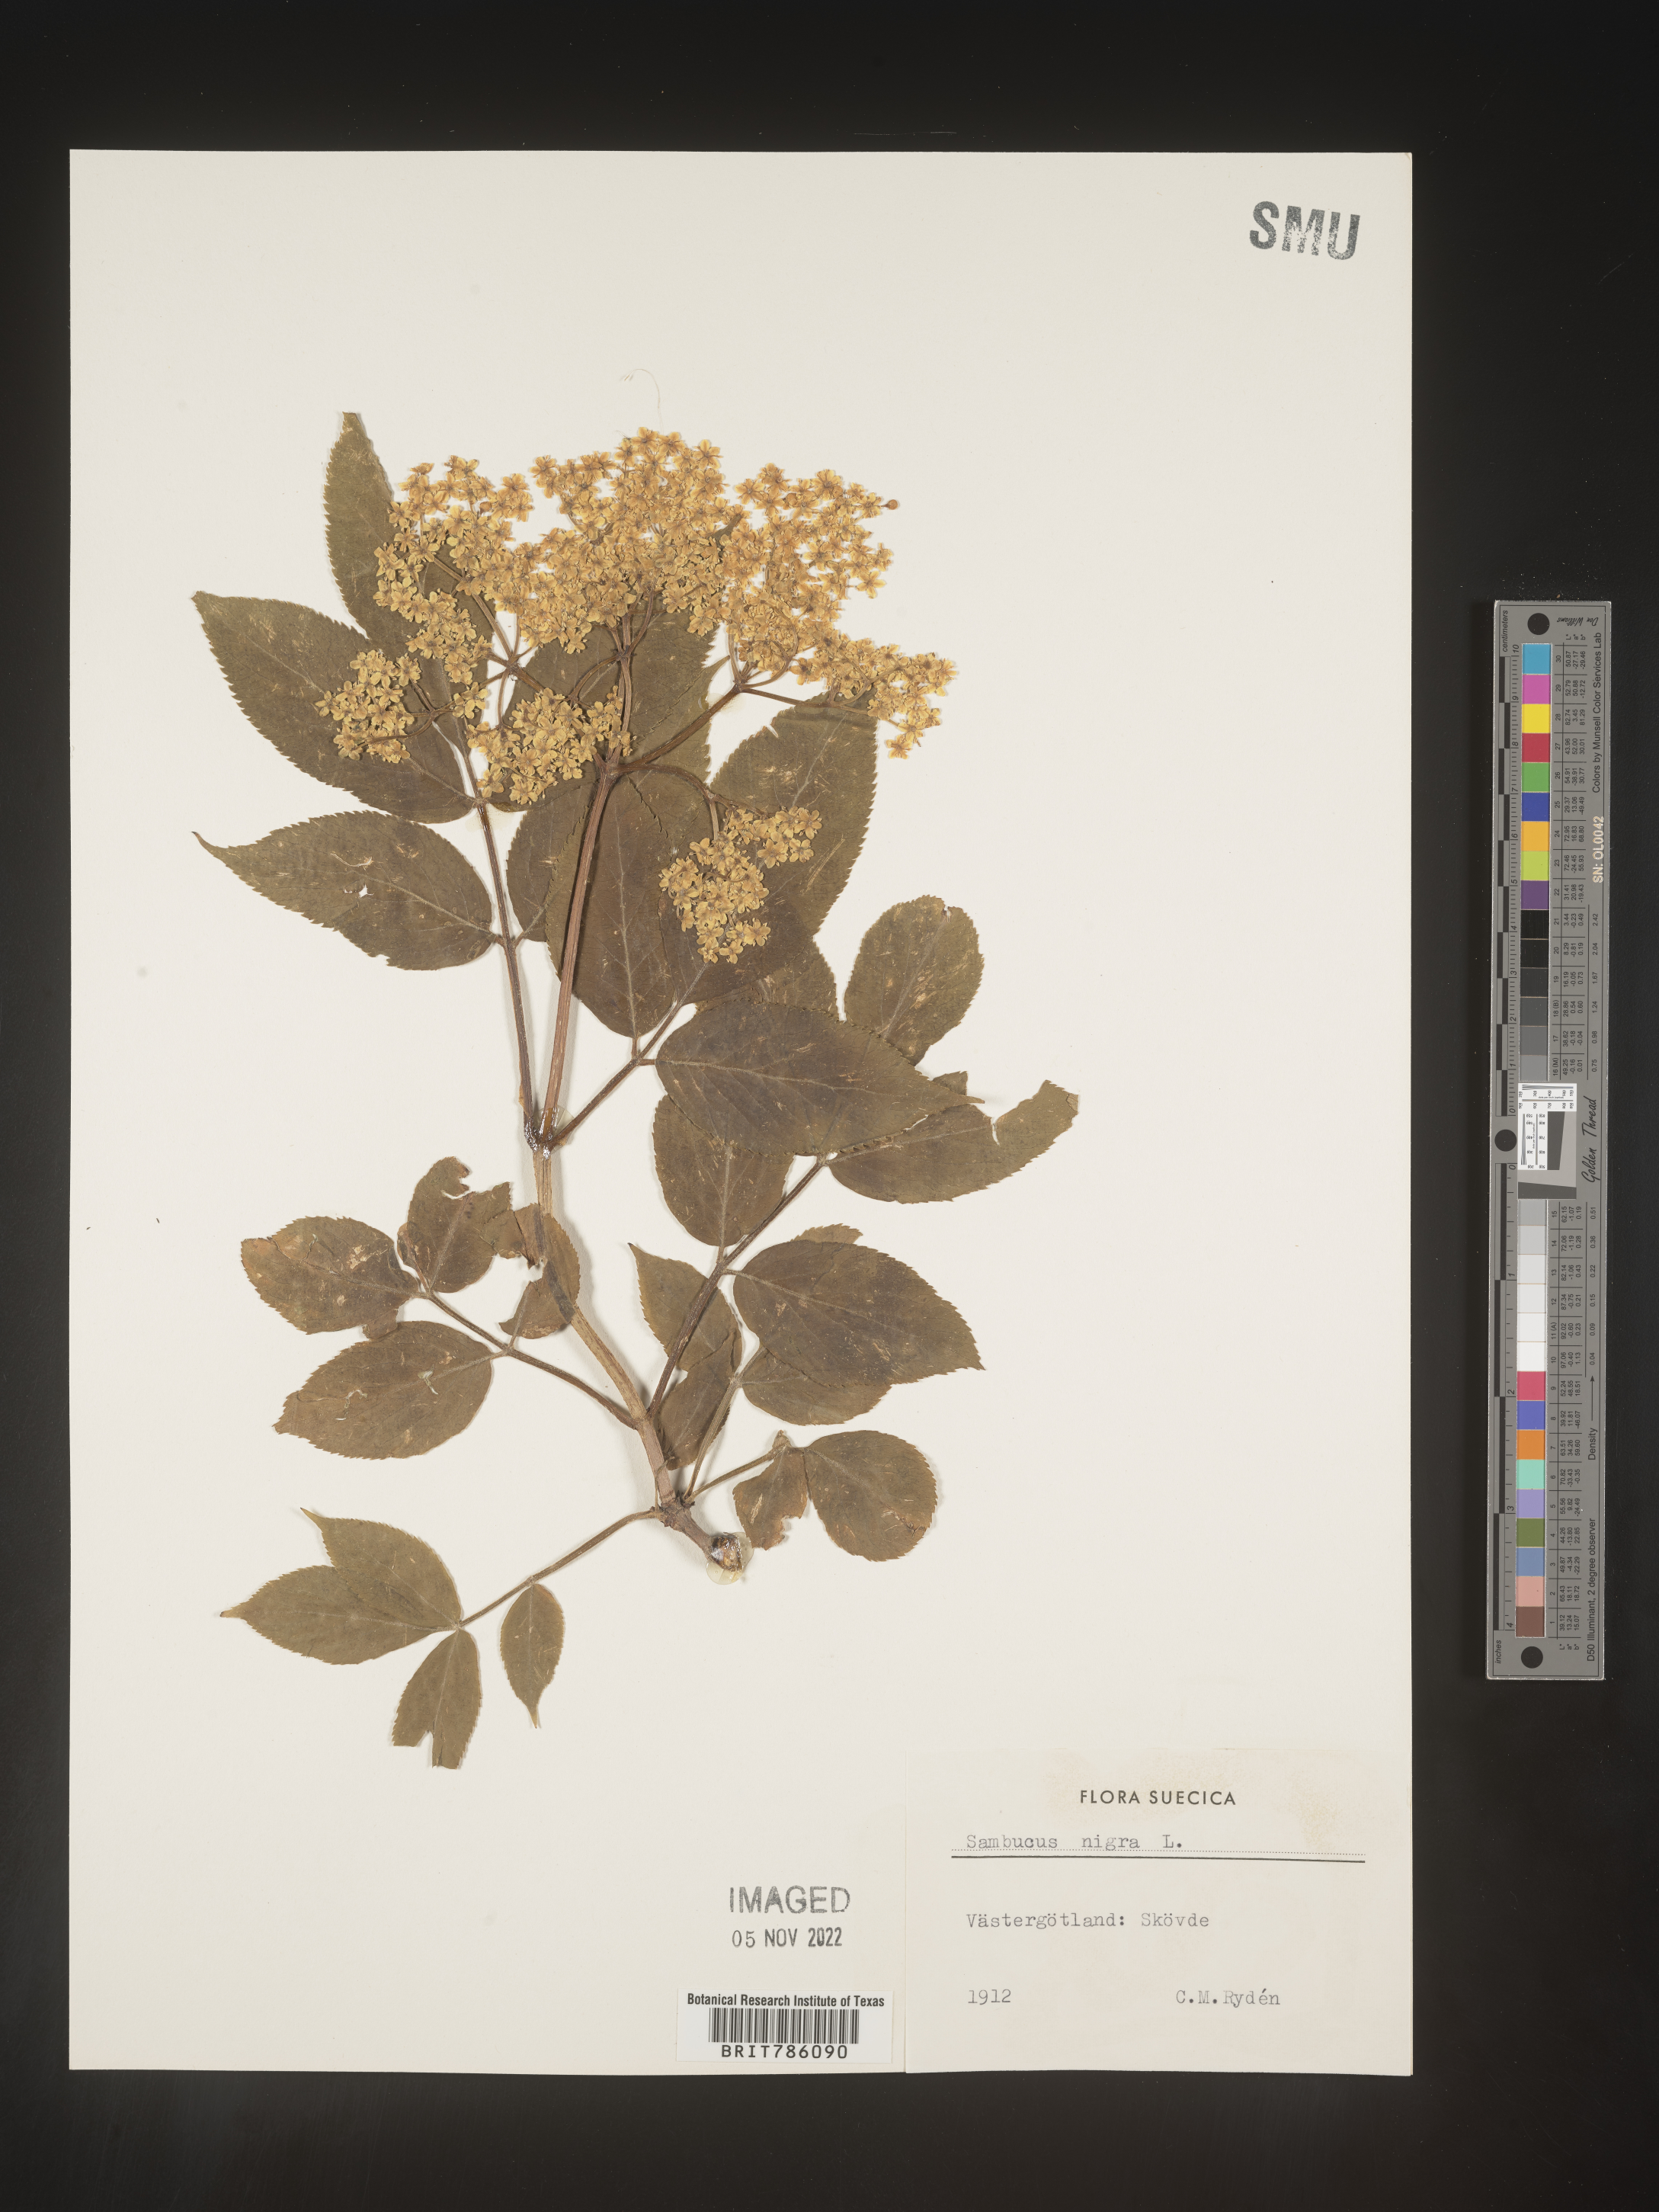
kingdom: Plantae
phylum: Tracheophyta
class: Magnoliopsida
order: Dipsacales
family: Viburnaceae
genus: Sambucus
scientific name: Sambucus
